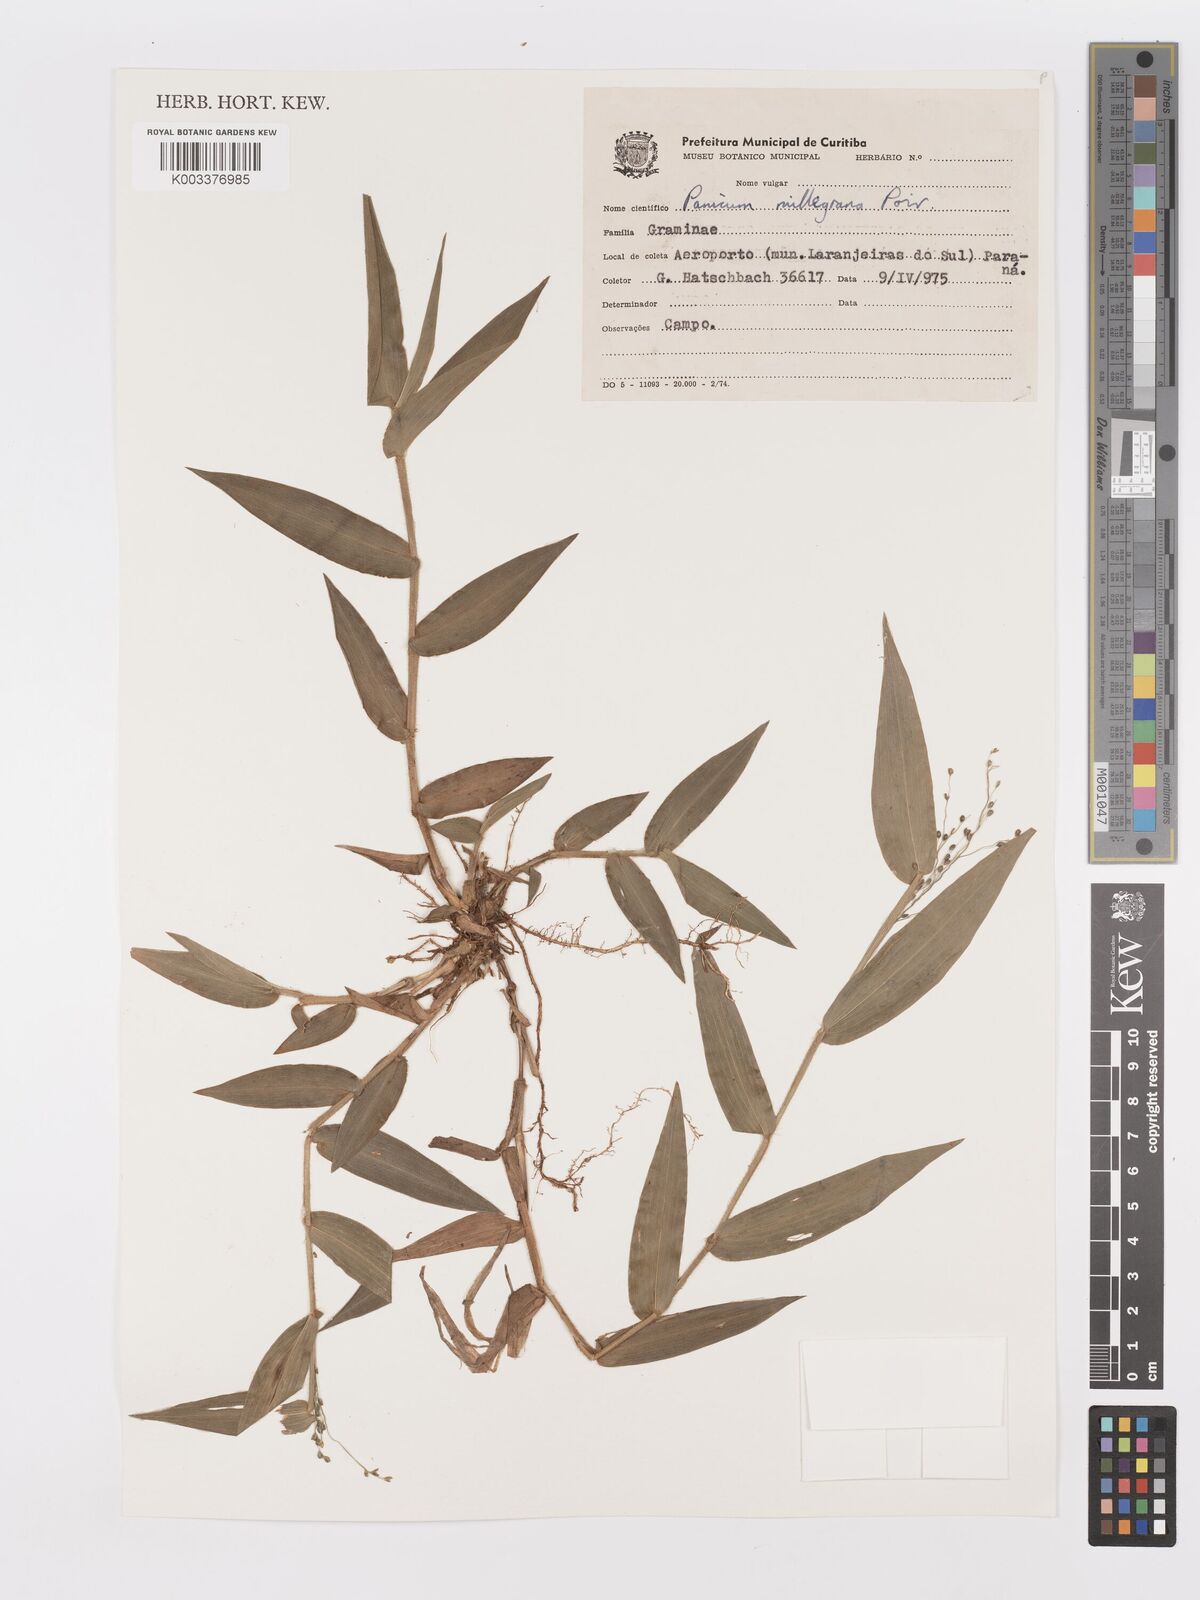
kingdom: Plantae
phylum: Tracheophyta
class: Liliopsida
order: Poales
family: Poaceae
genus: Panicum
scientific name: Panicum millegrana
